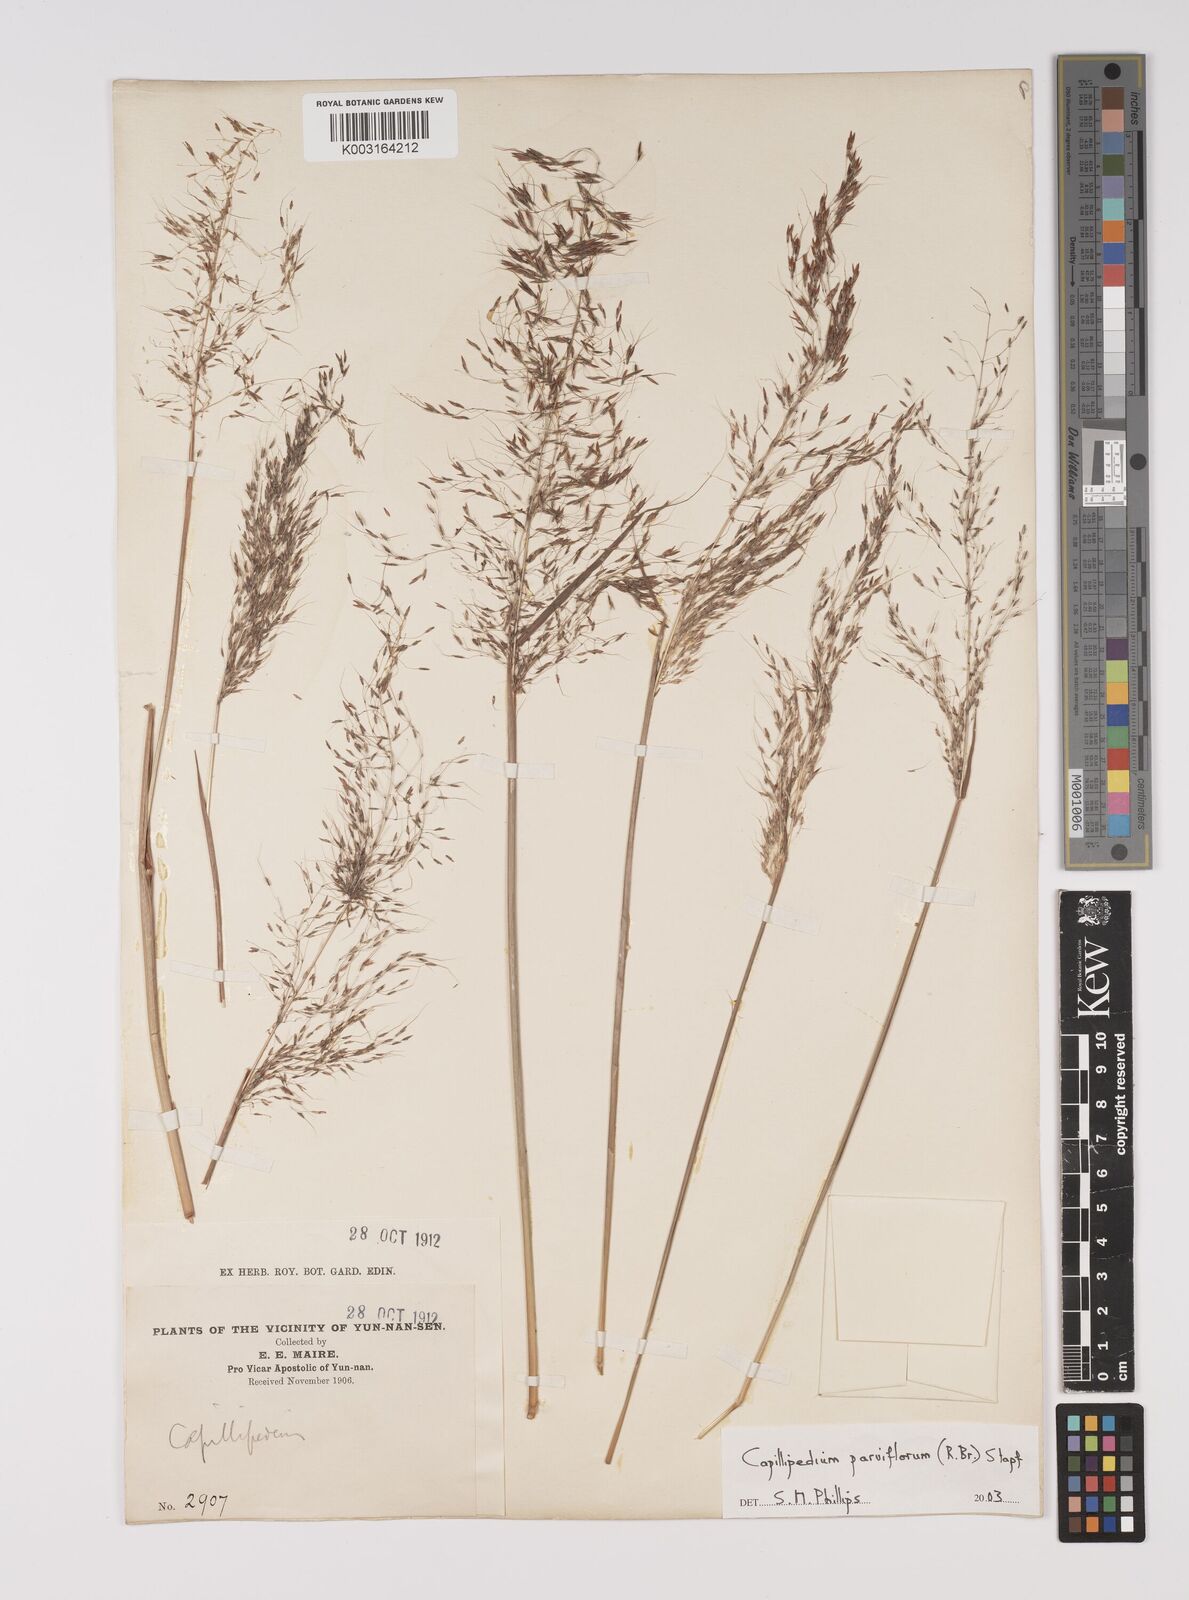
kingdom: Plantae
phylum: Tracheophyta
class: Liliopsida
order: Poales
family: Poaceae
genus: Capillipedium
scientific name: Capillipedium parviflorum
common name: Golden-beard
